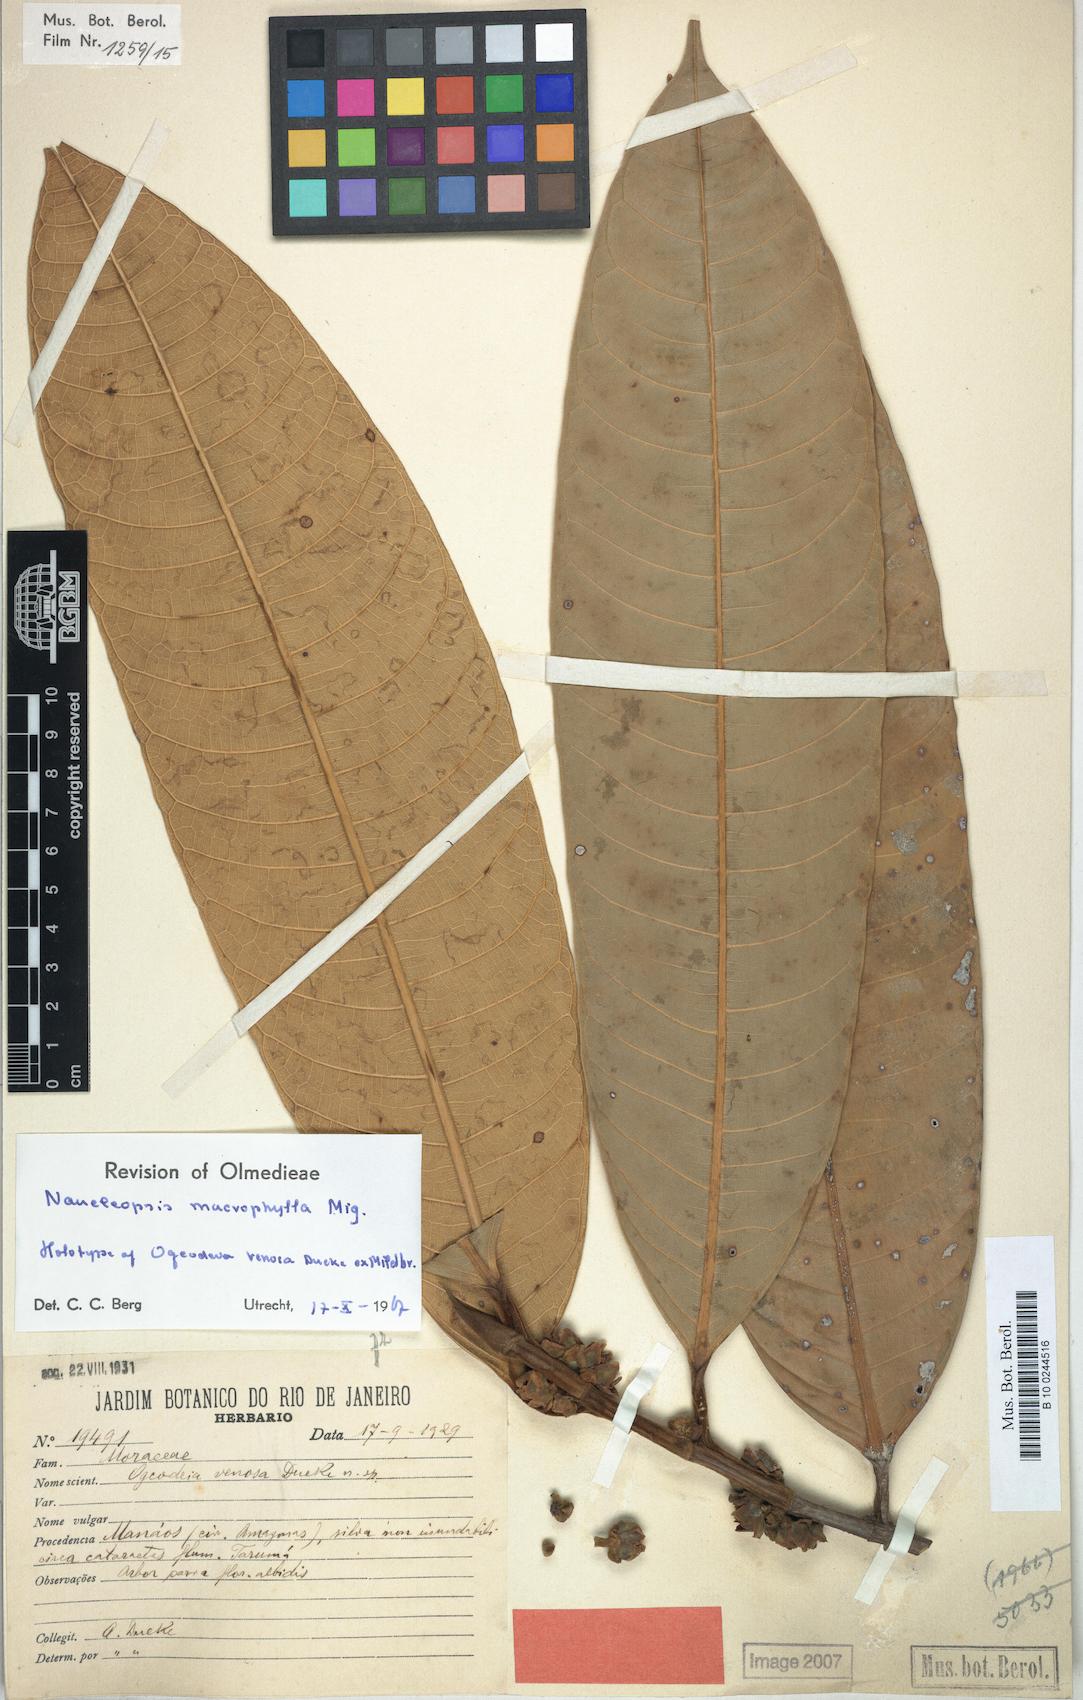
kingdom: Plantae
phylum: Tracheophyta
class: Magnoliopsida
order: Rosales
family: Moraceae
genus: Naucleopsis
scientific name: Naucleopsis macrophylla
